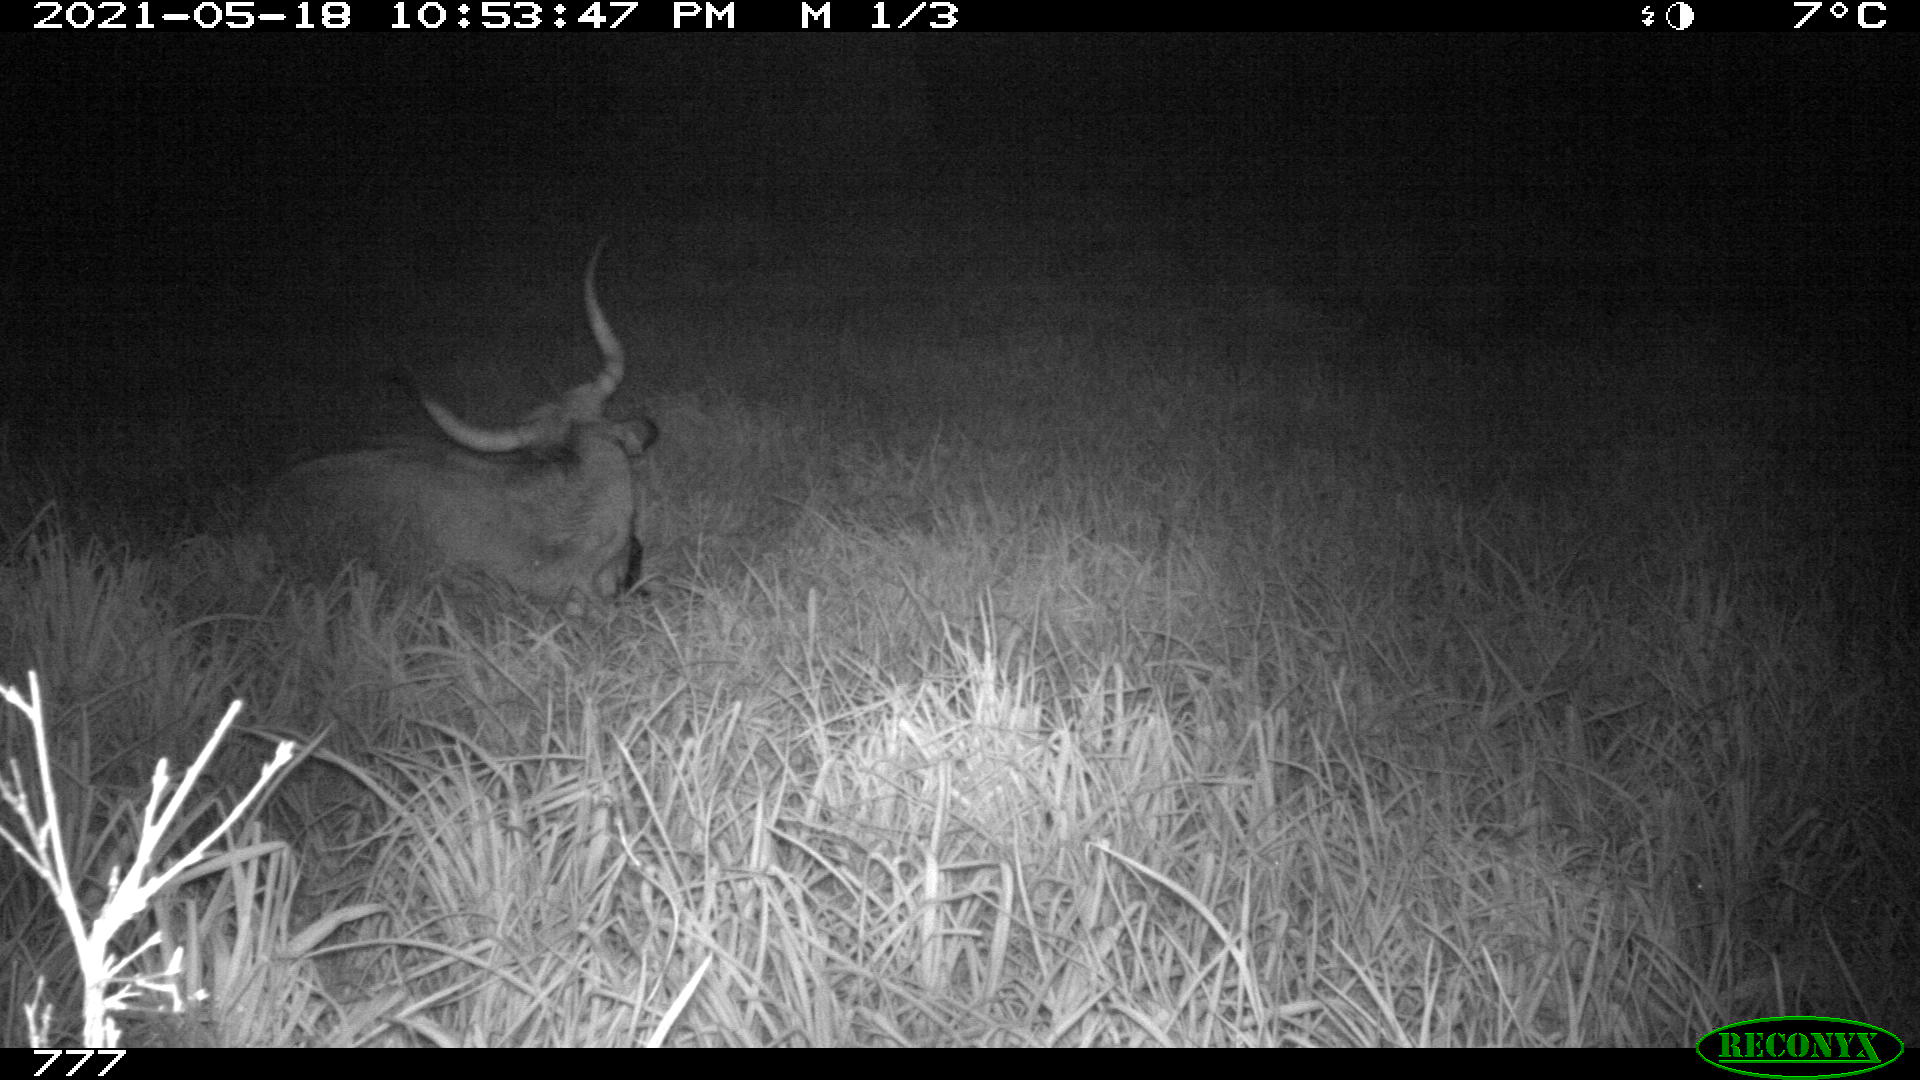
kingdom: Animalia
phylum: Chordata
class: Mammalia
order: Artiodactyla
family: Bovidae
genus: Bos
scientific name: Bos taurus
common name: Domesticated cattle
